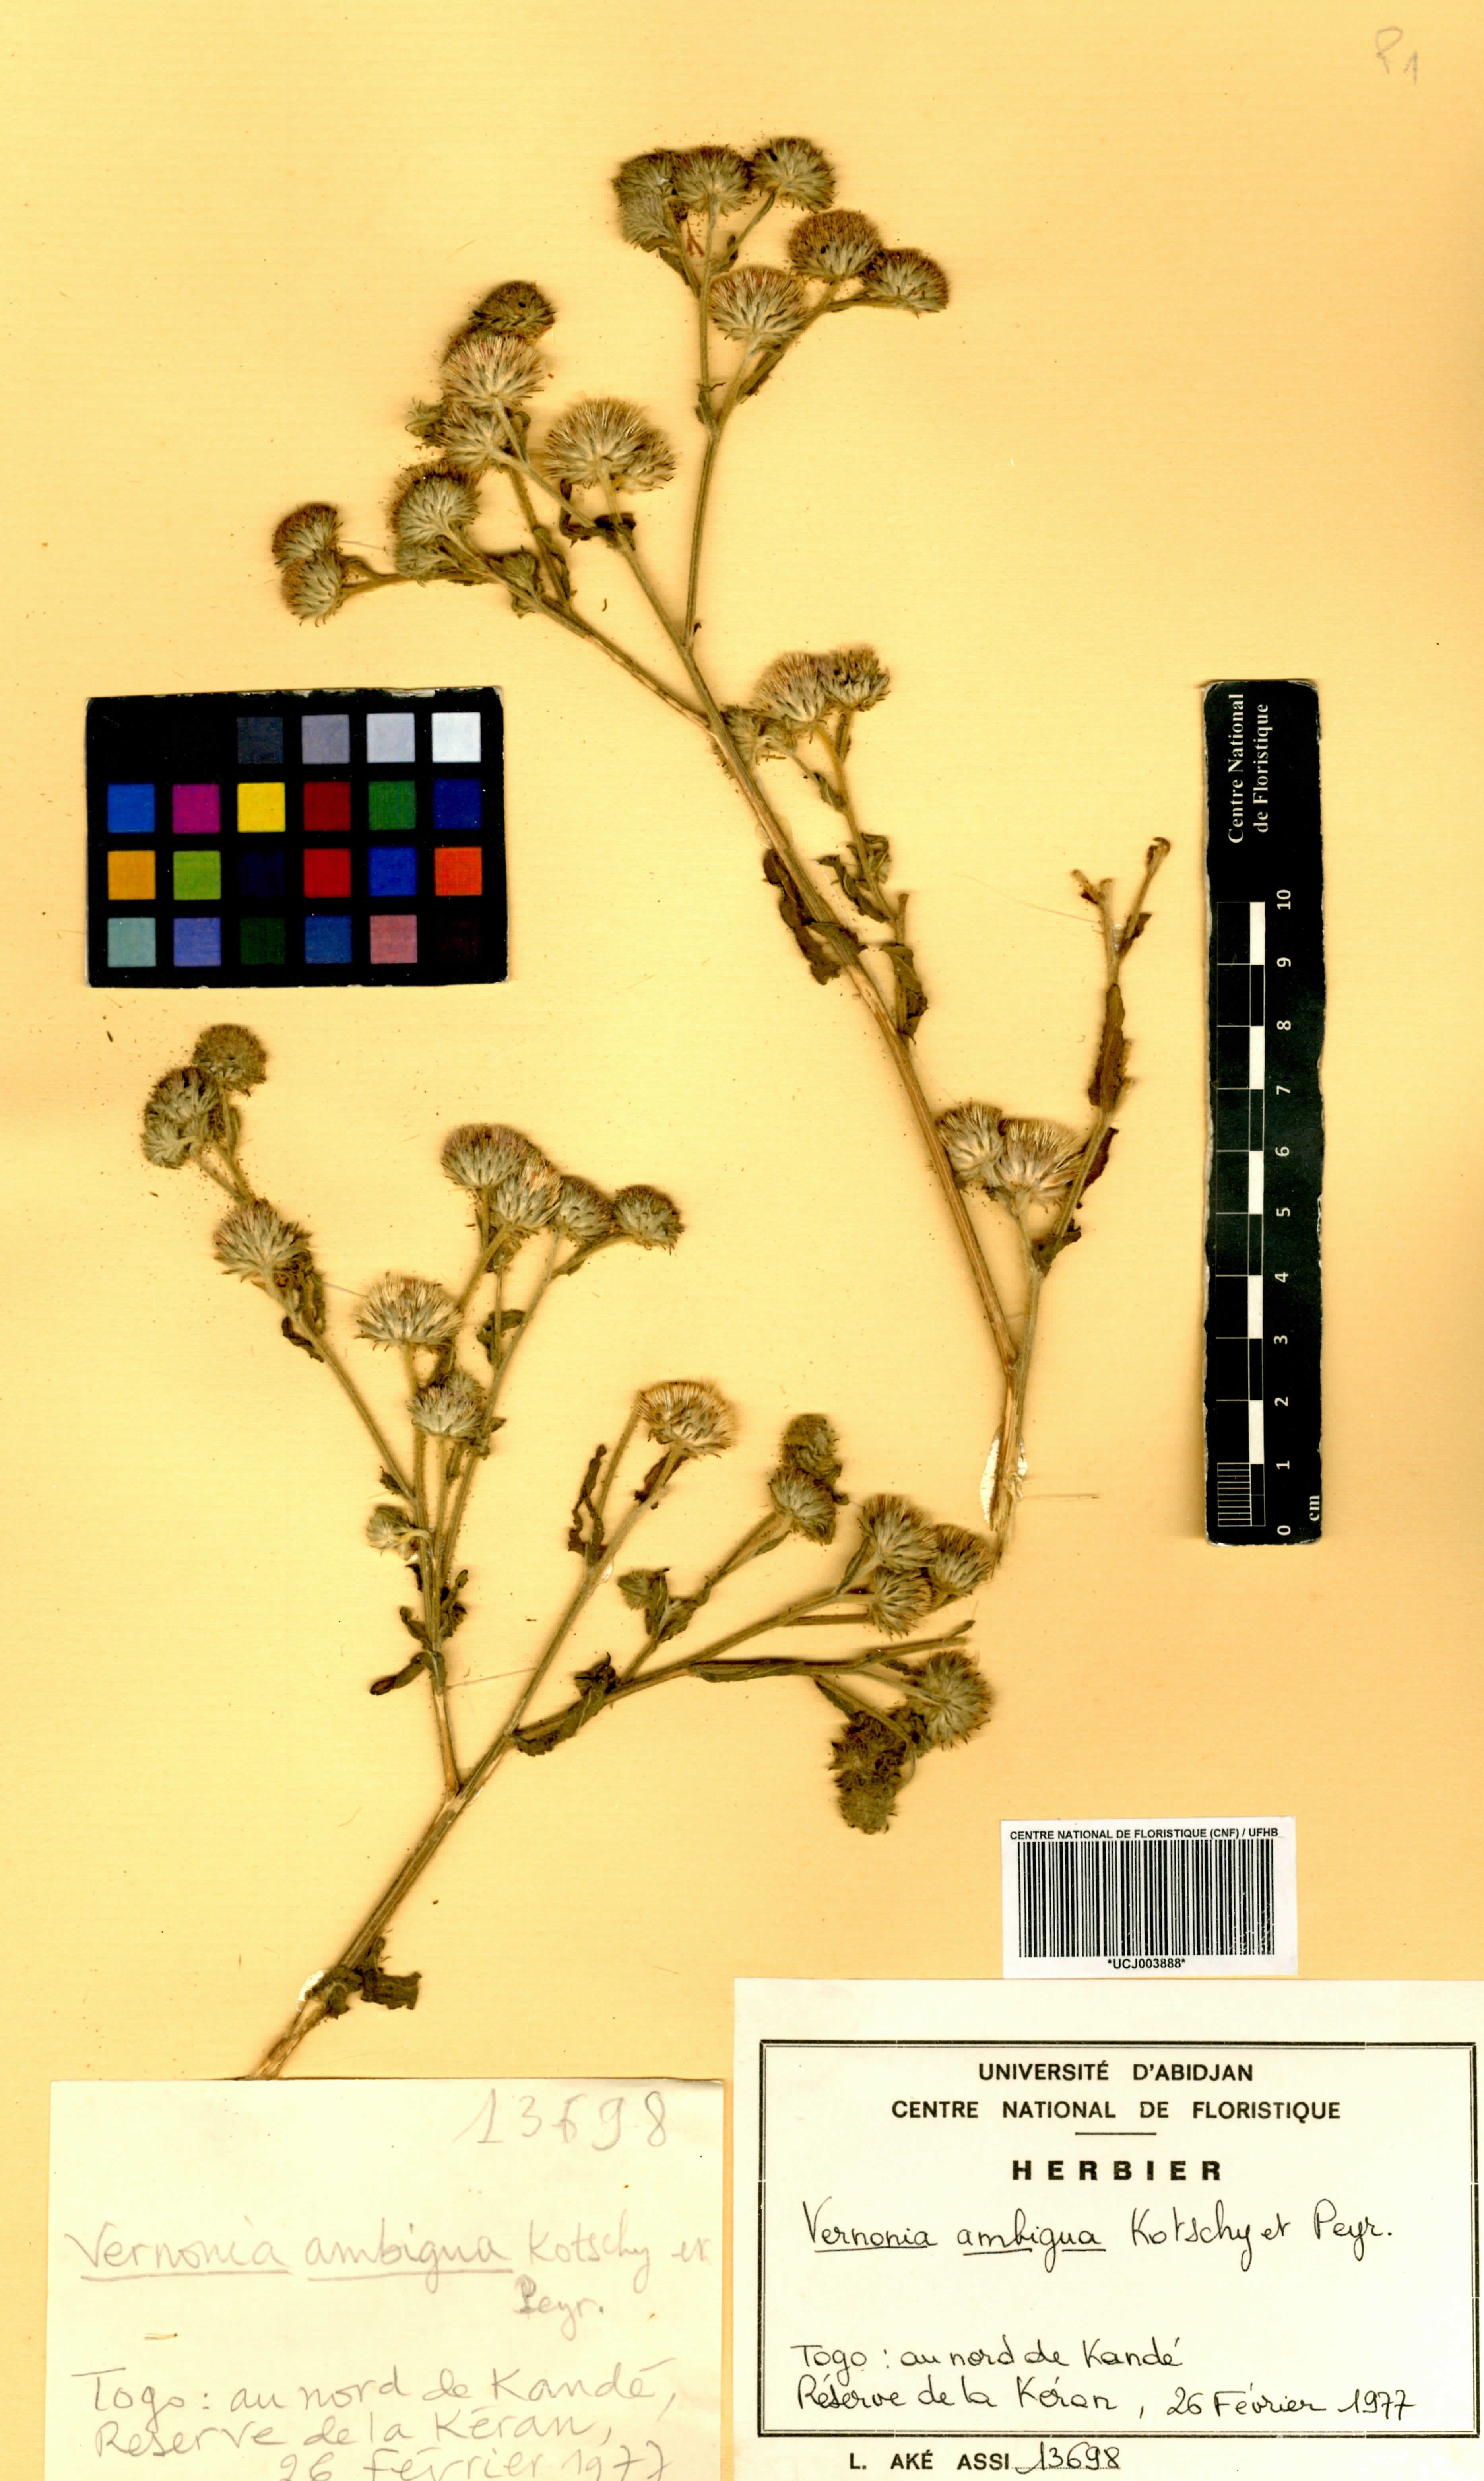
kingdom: Plantae
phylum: Tracheophyta
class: Magnoliopsida
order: Asterales
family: Asteraceae
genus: Vernoniastrum
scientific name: Vernoniastrum ambiguum
